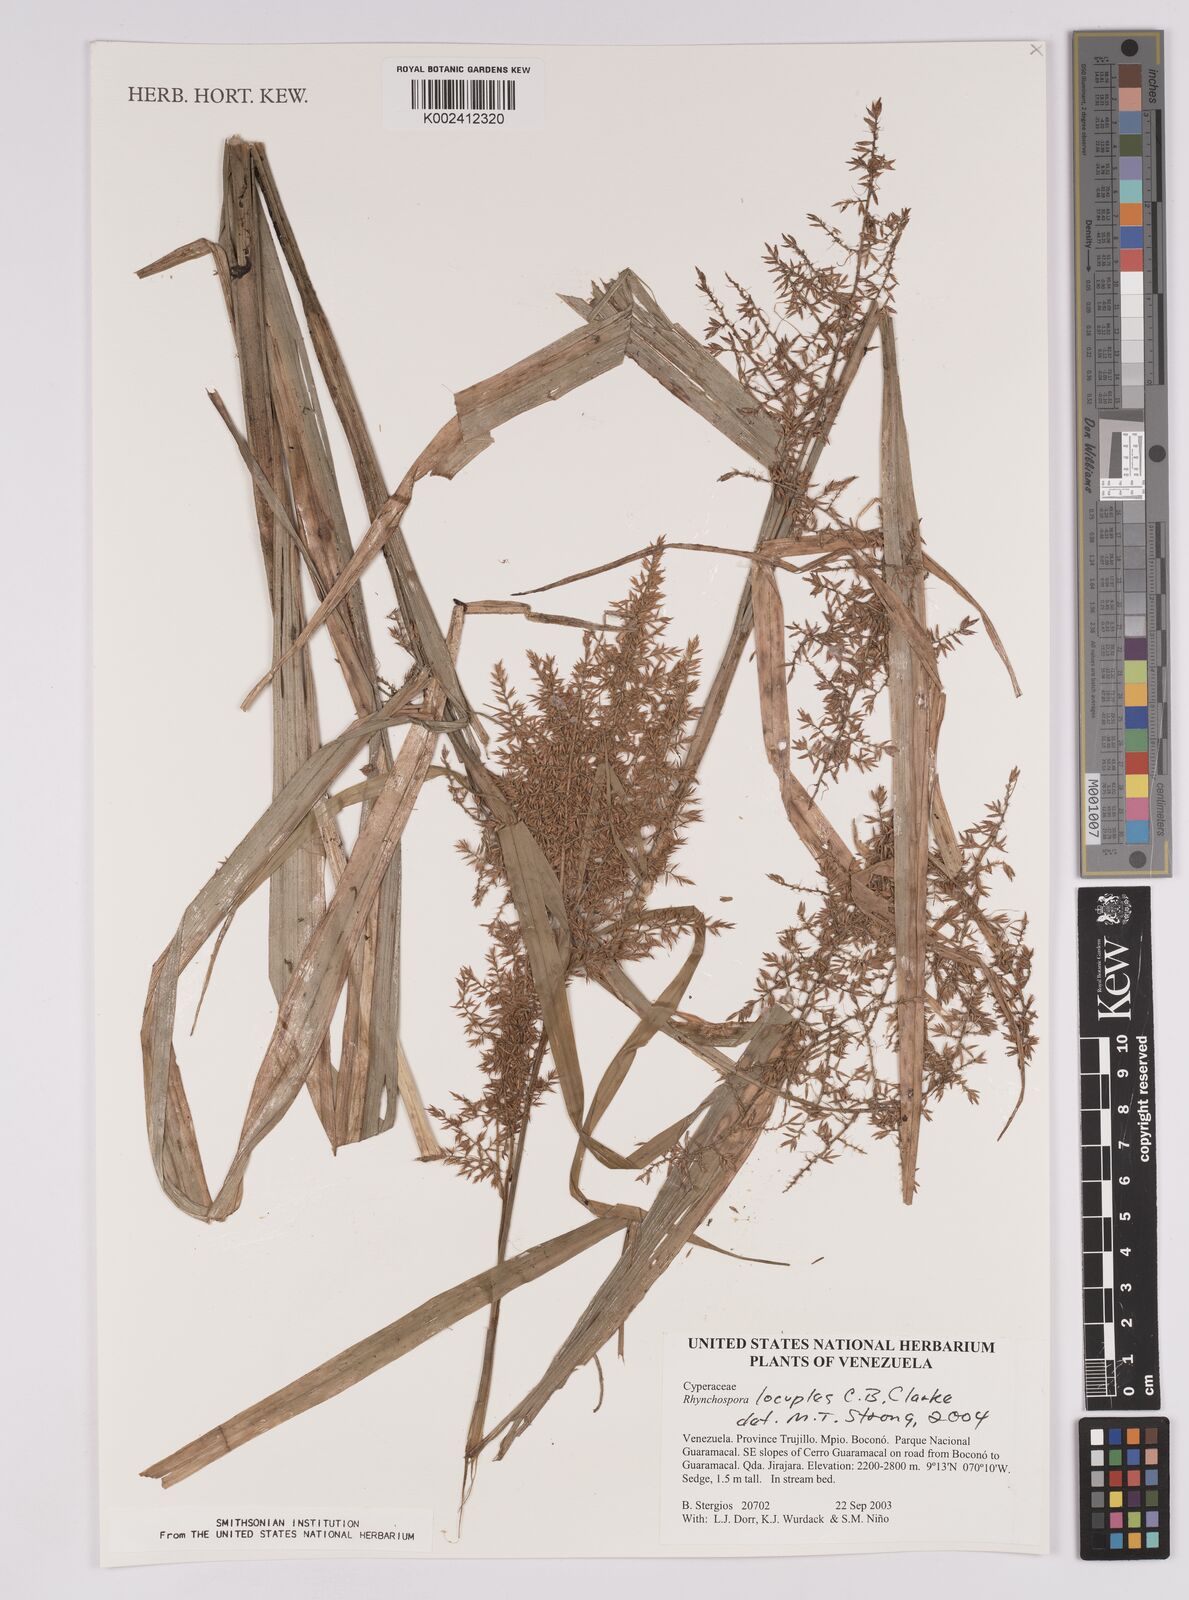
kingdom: Plantae
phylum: Tracheophyta
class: Liliopsida
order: Poales
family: Cyperaceae
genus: Rhynchospora
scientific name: Rhynchospora locuples
